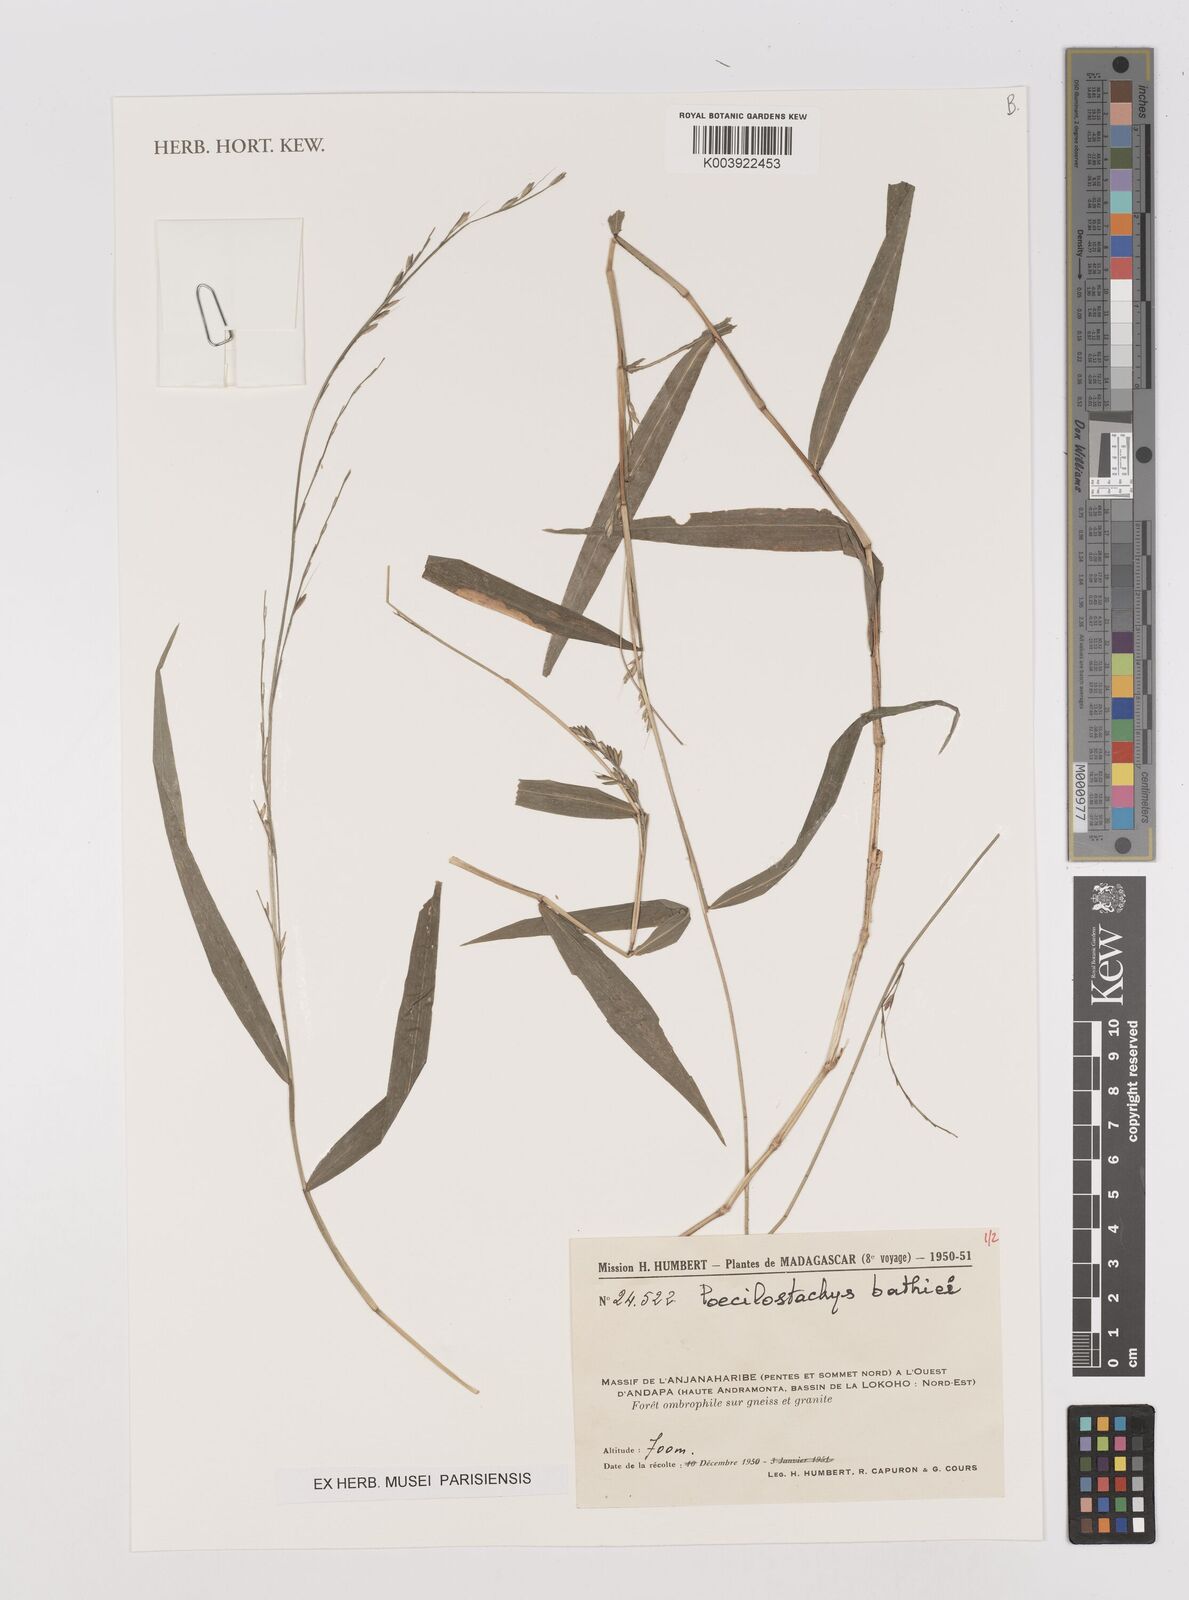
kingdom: Plantae
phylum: Tracheophyta
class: Liliopsida
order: Poales
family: Poaceae
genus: Poecilostachys
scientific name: Poecilostachys baronis
